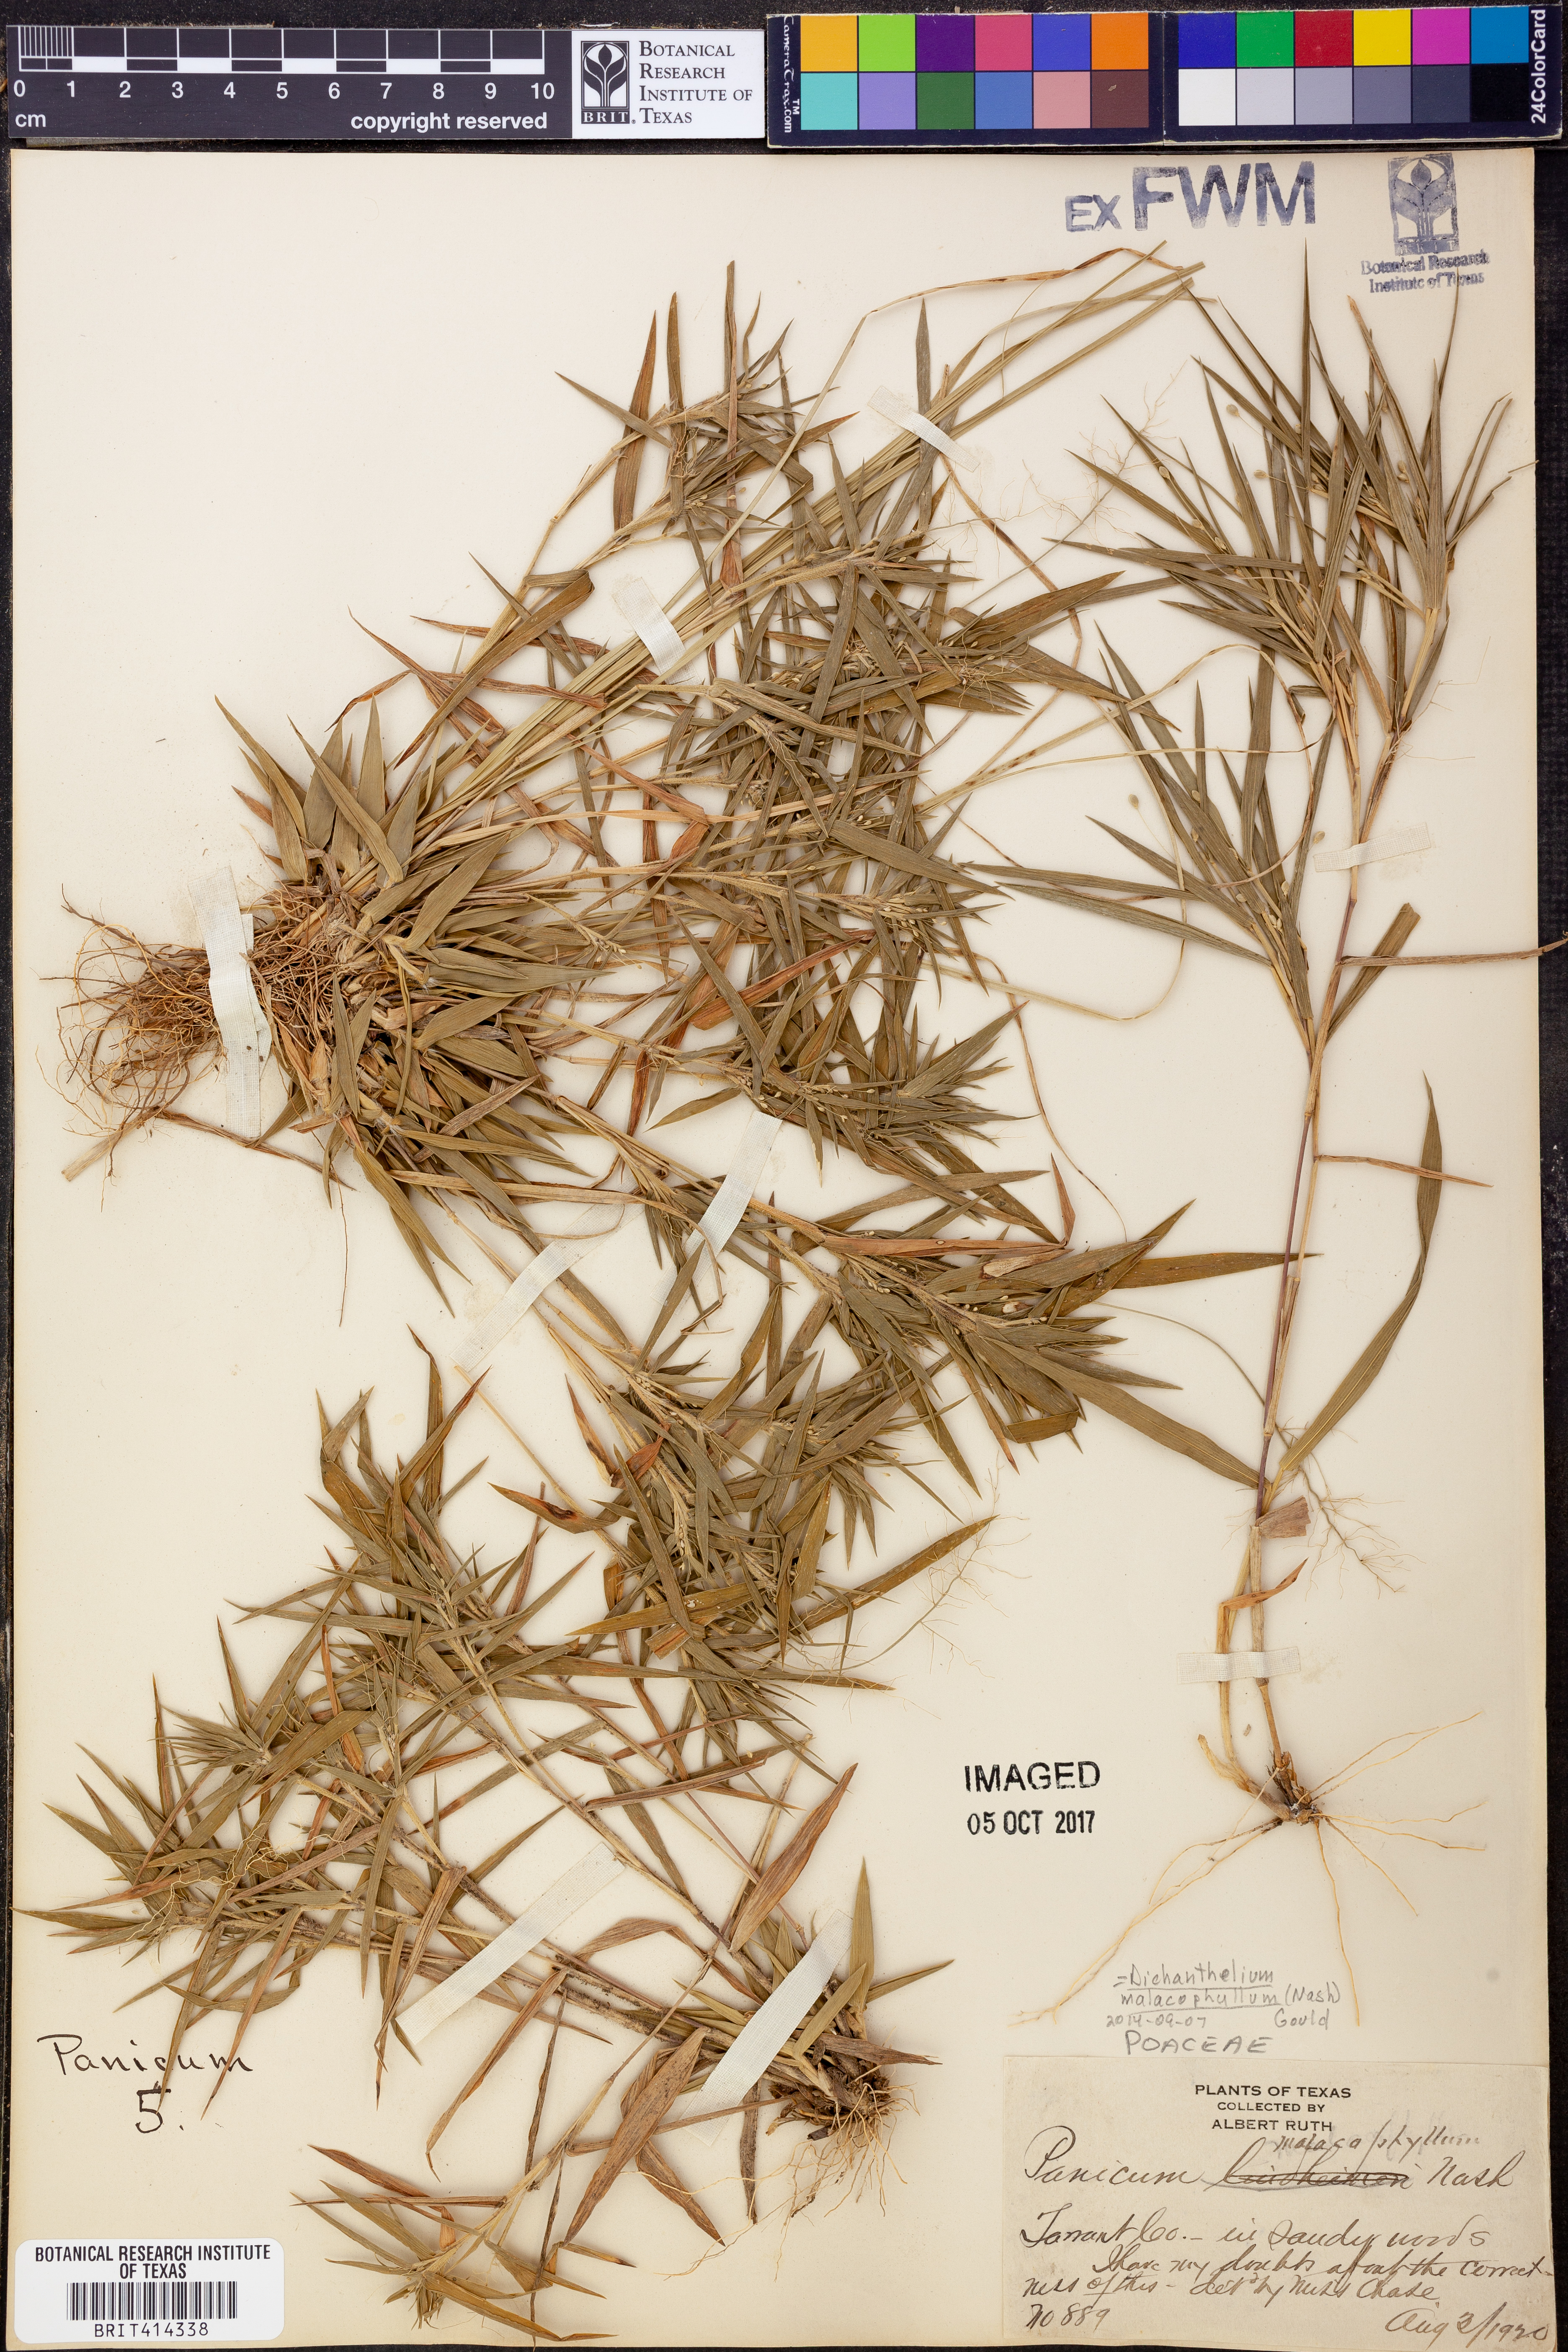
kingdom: Plantae
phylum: Tracheophyta
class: Liliopsida
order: Poales
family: Poaceae
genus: Dichanthelium
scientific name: Dichanthelium malacophyllum
